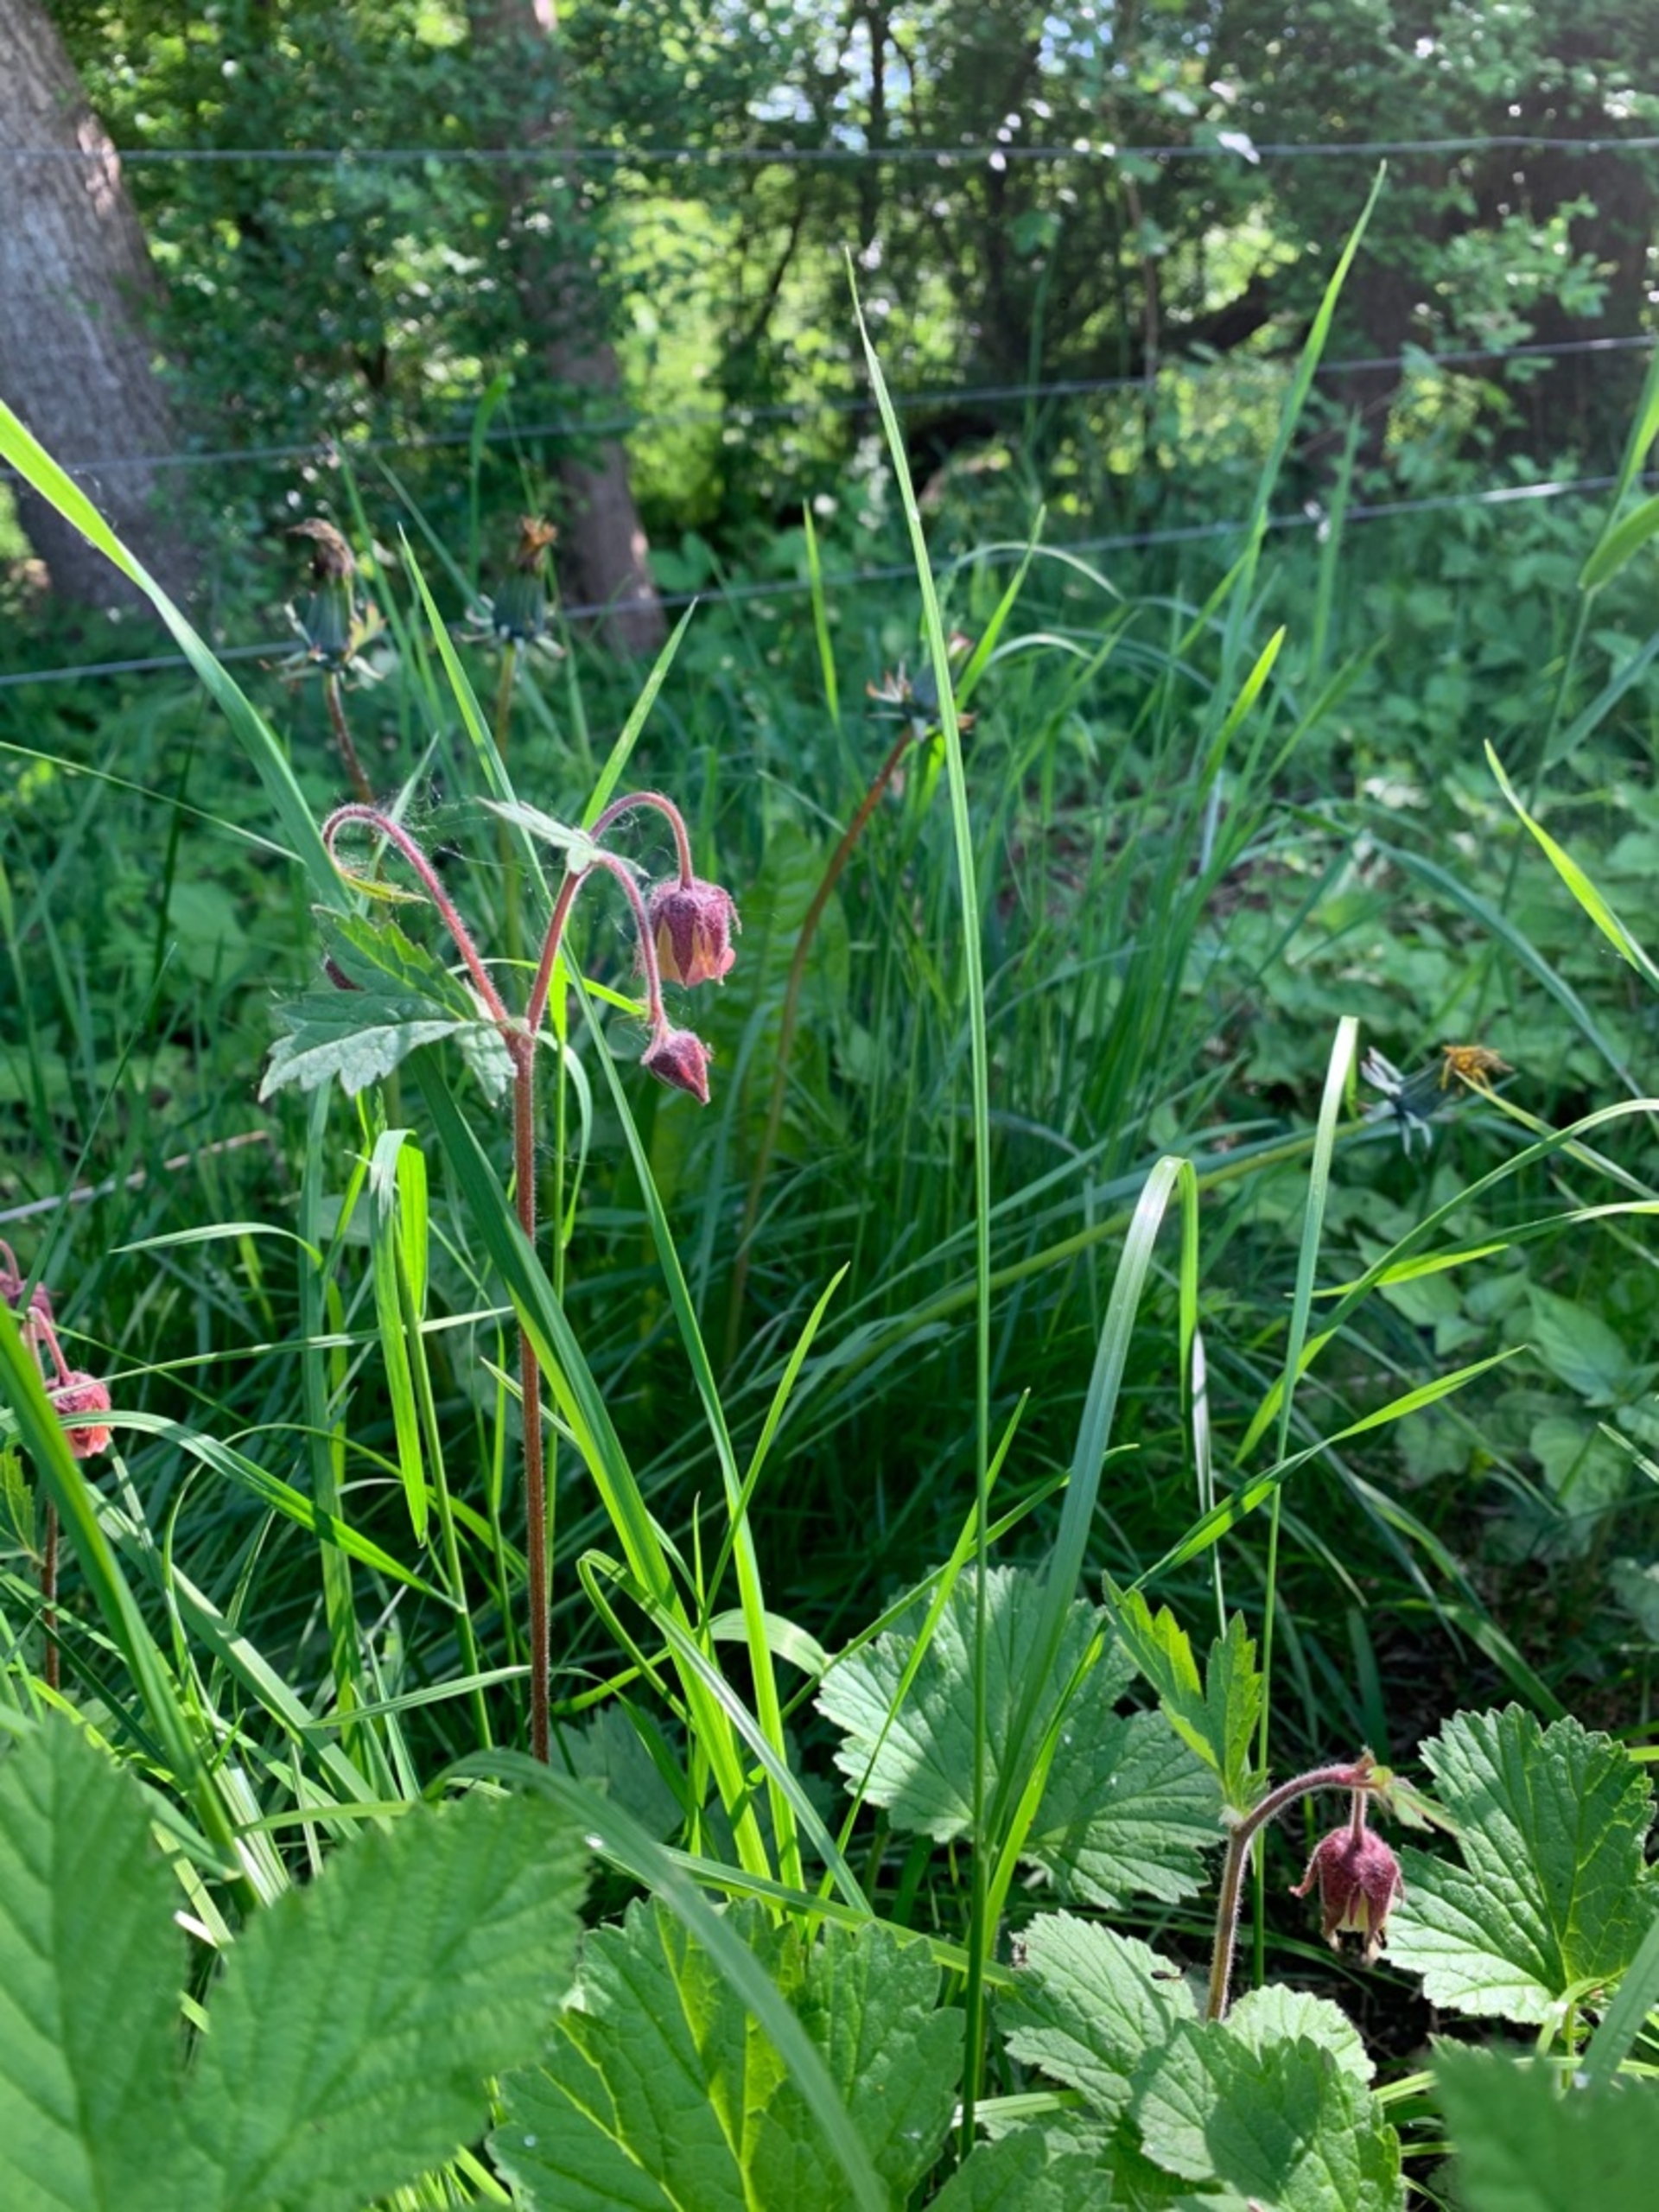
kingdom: Plantae
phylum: Tracheophyta
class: Magnoliopsida
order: Rosales
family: Rosaceae
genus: Geum
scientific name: Geum rivale
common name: Eng-nellikerod
